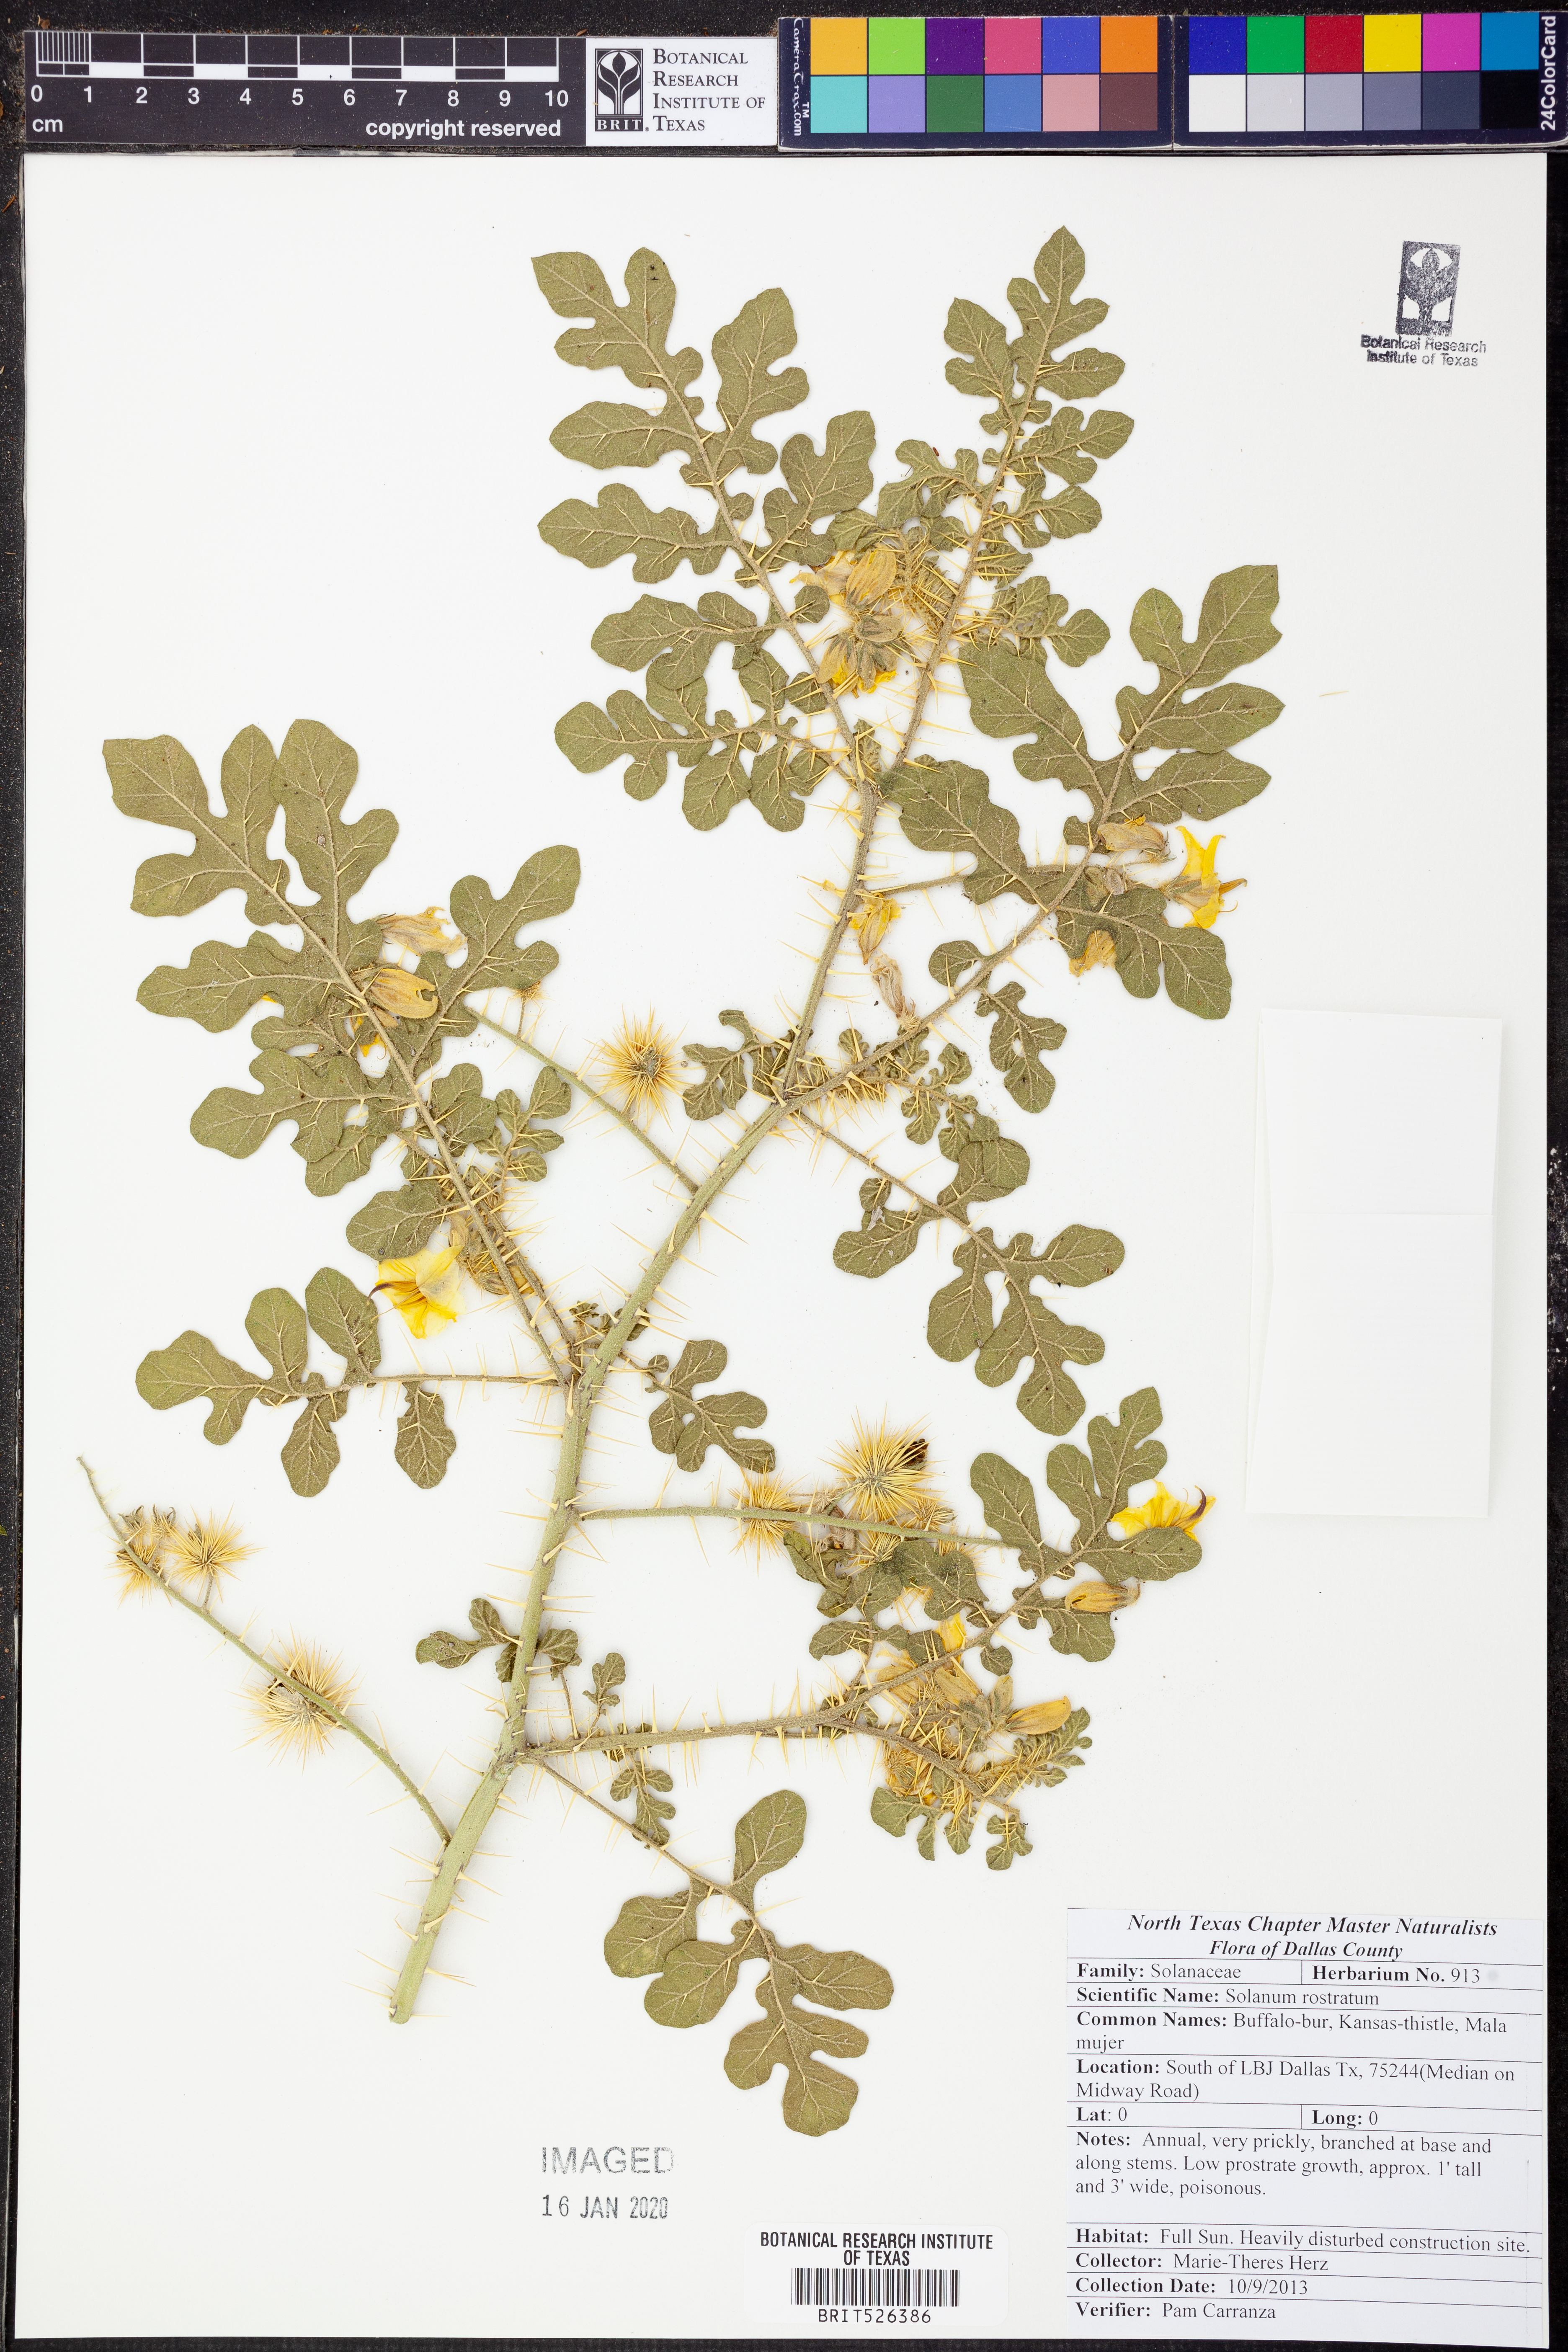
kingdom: Plantae
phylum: Tracheophyta
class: Magnoliopsida
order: Solanales
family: Solanaceae
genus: Solanum
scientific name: Solanum angustifolium
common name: Buffalobur nightshade
